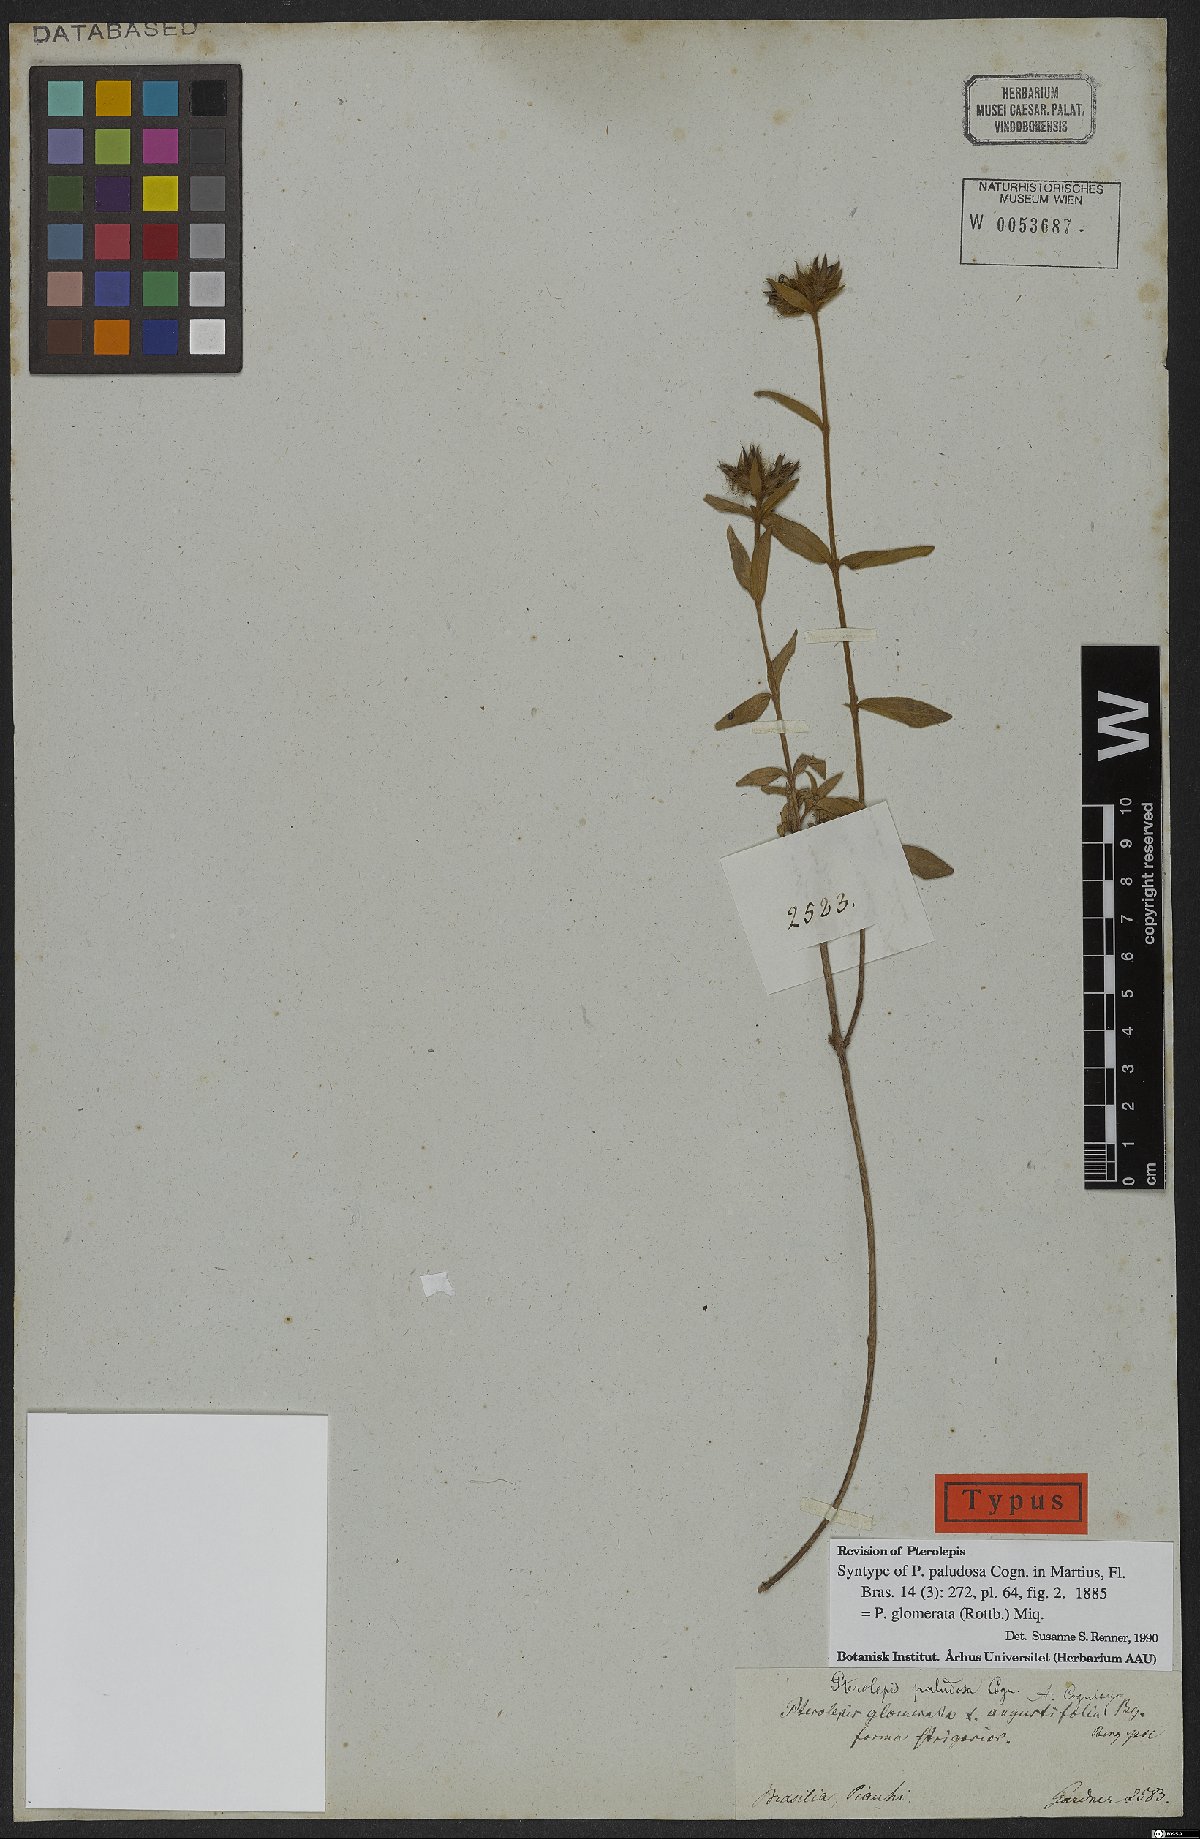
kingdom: Plantae
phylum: Tracheophyta
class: Magnoliopsida
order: Myrtales
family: Melastomataceae
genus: Pterolepis
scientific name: Pterolepis glomerata
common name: False meadowbeauty
